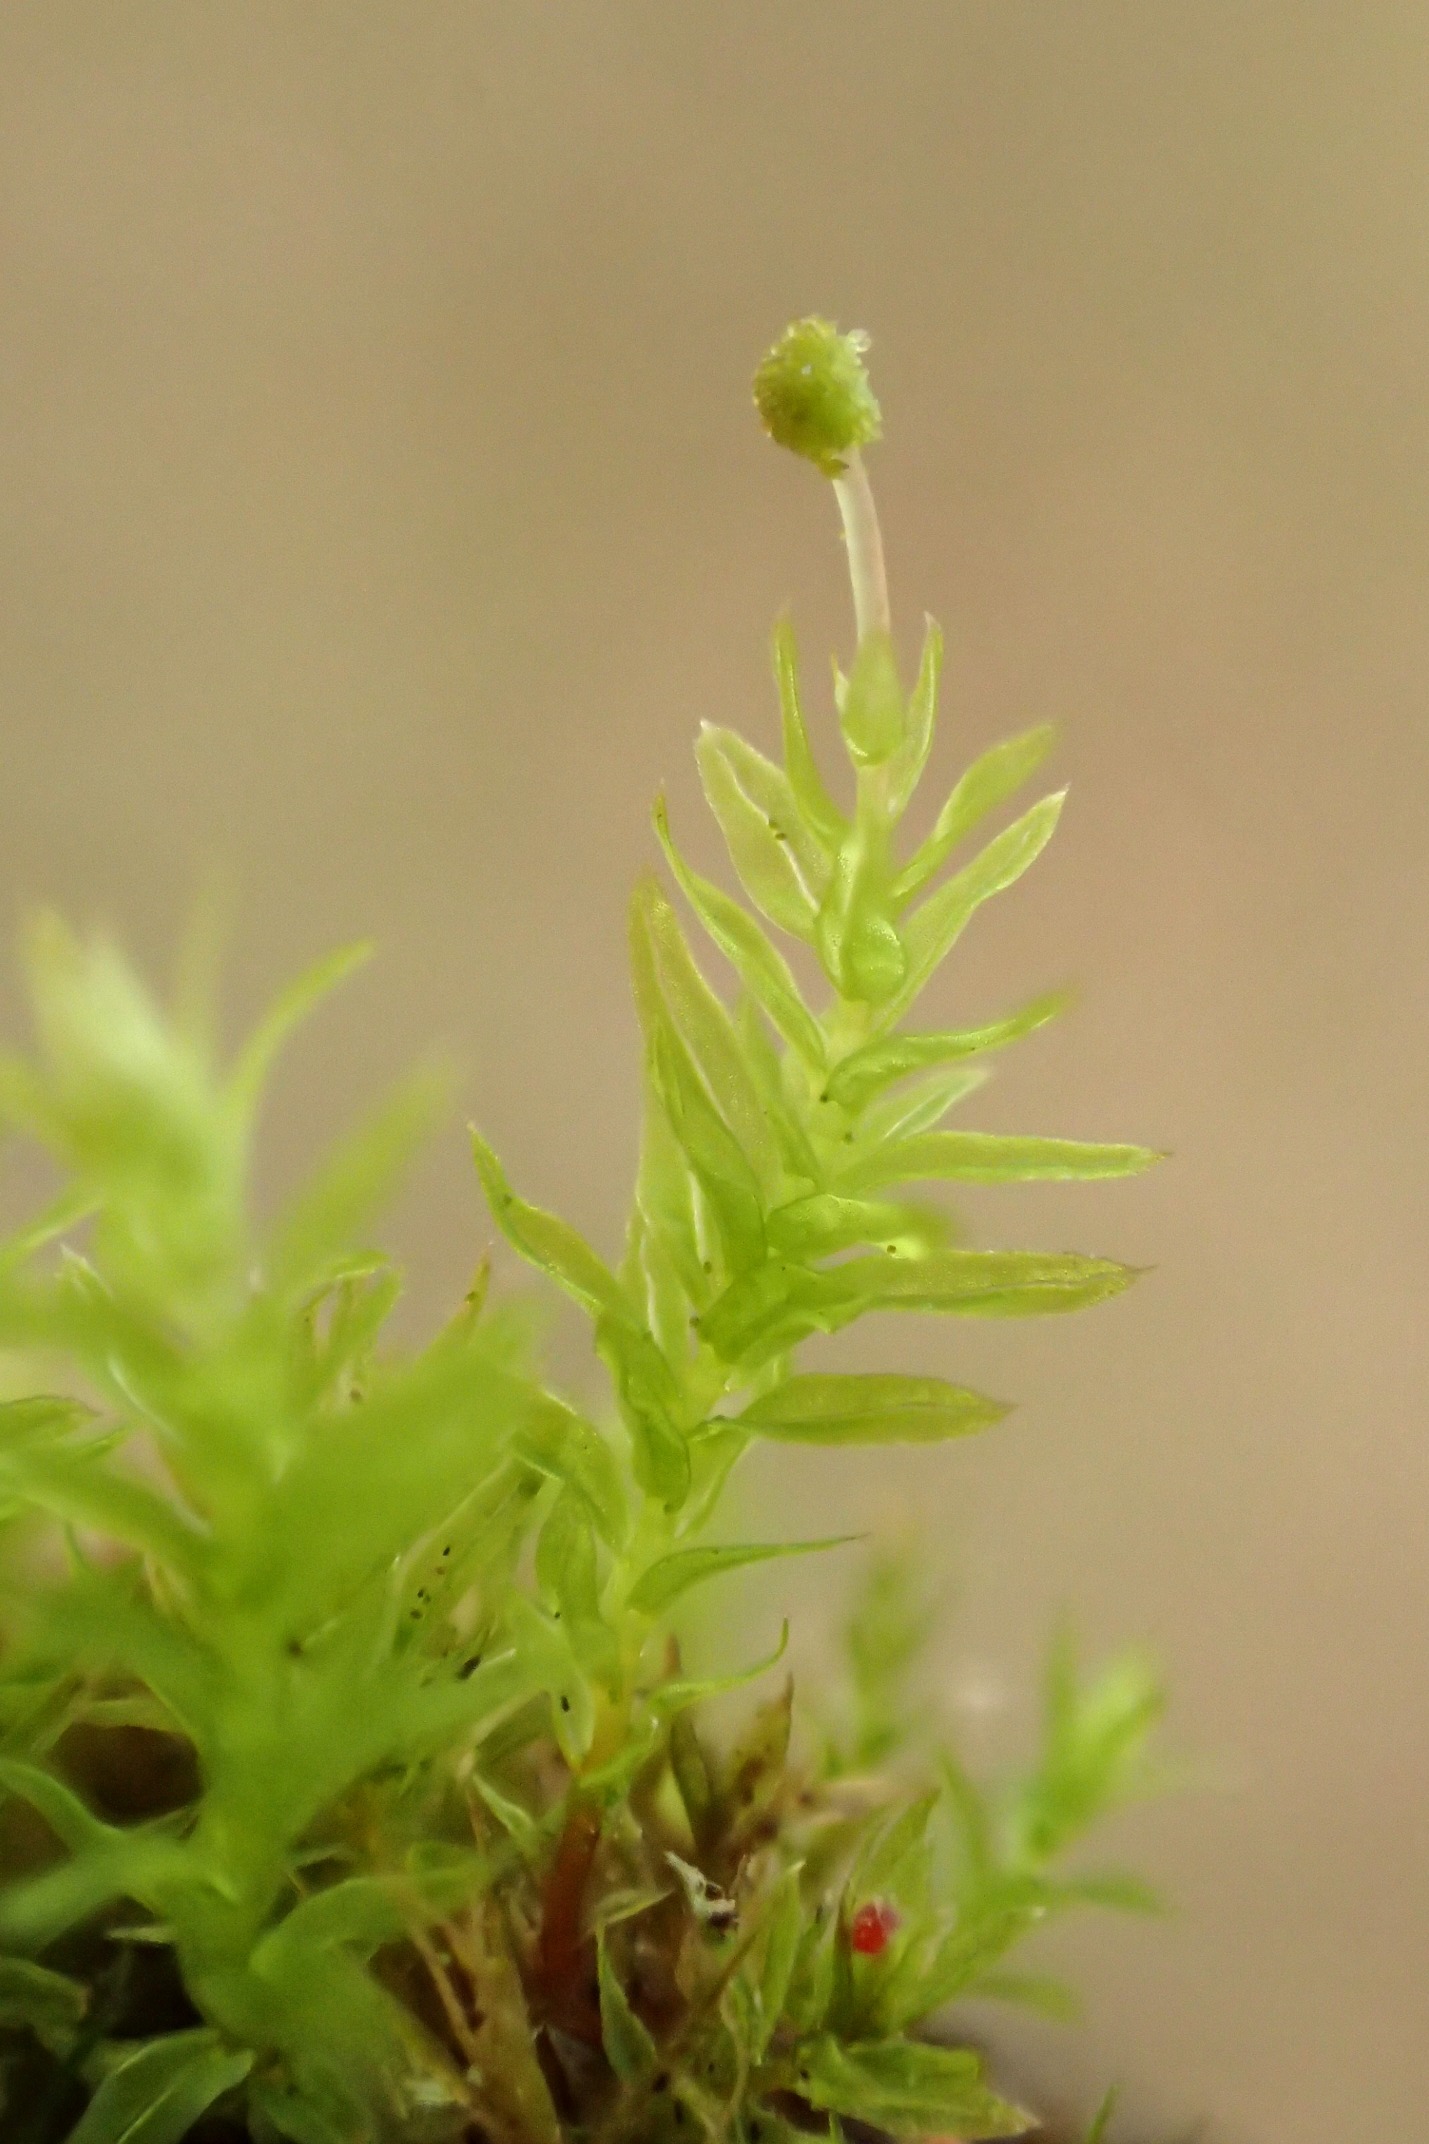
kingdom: Plantae
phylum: Bryophyta
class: Bryopsida
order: Aulacomniales
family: Aulacomniaceae
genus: Aulacomnium
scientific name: Aulacomnium androgynum
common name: Kugle-filtmos
